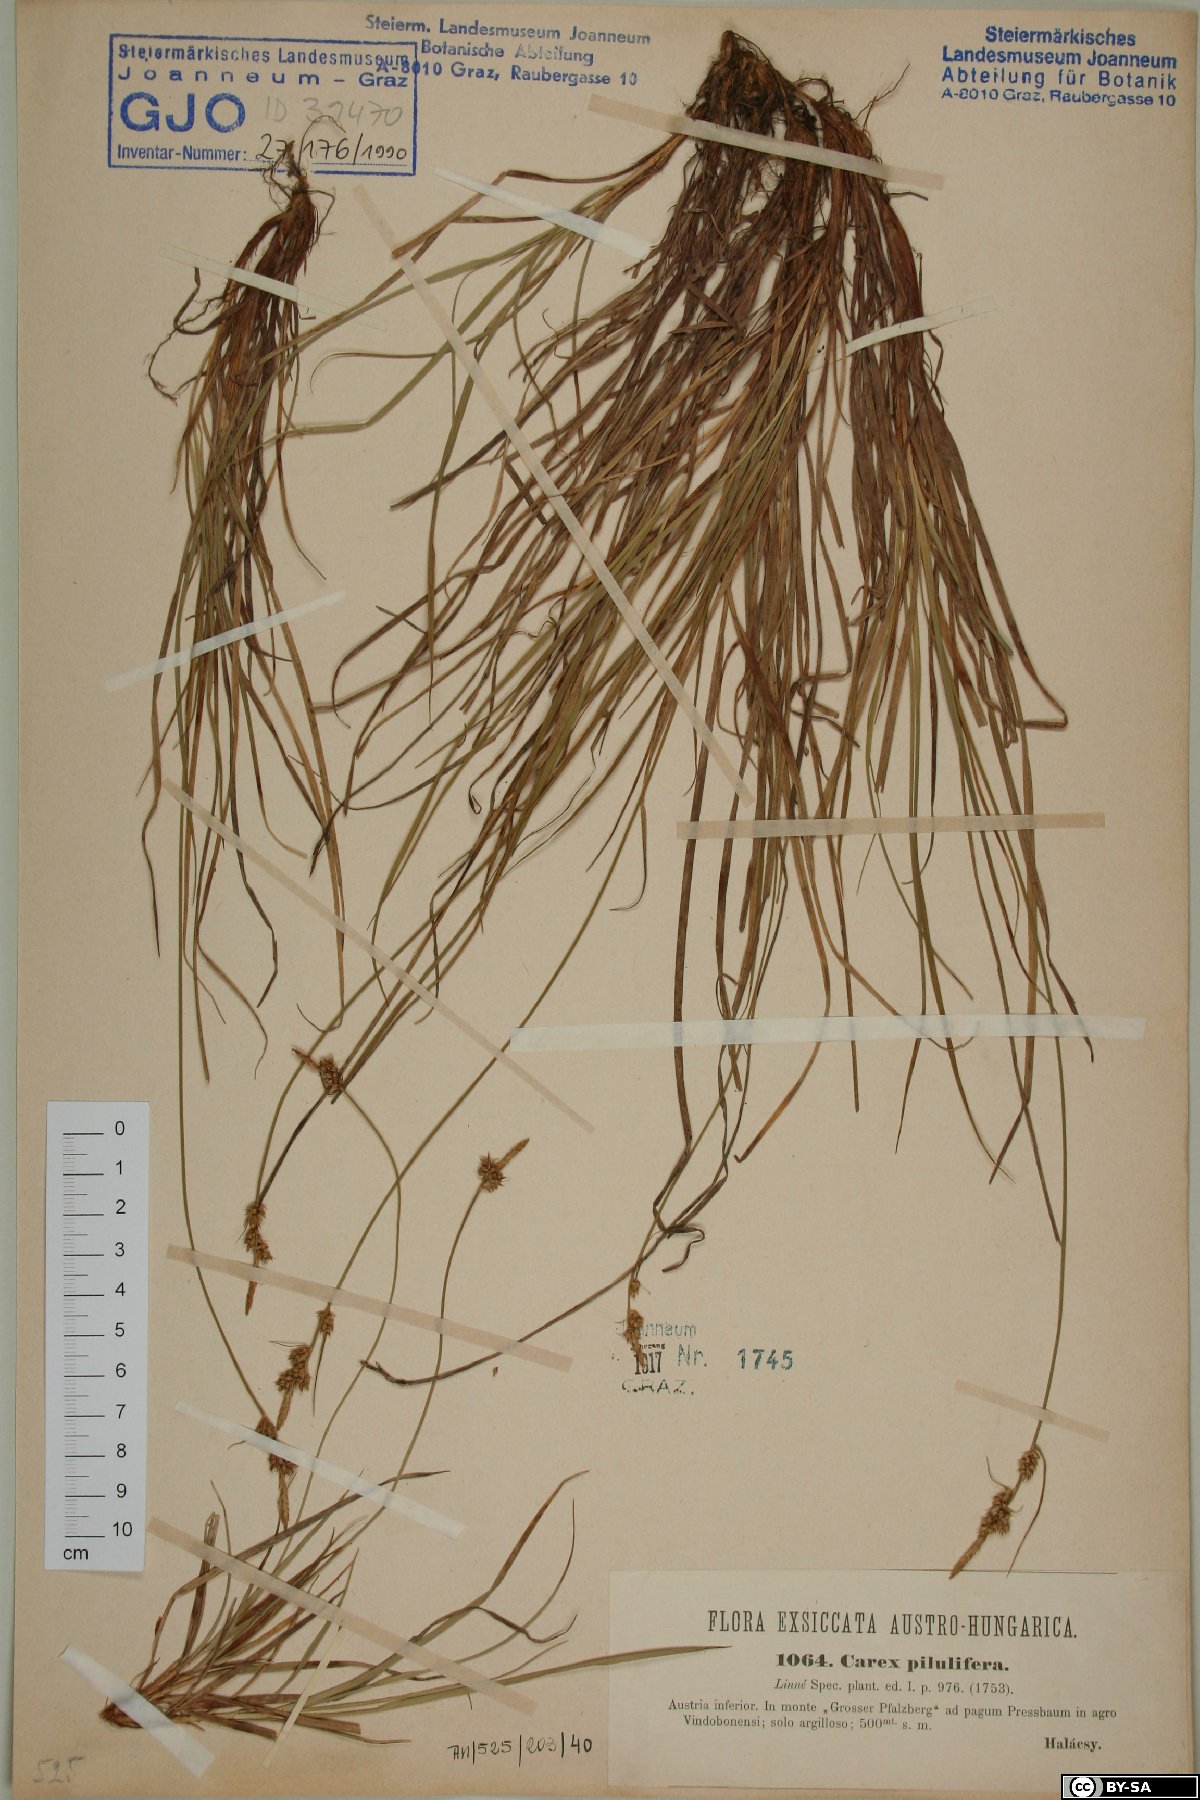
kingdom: Plantae
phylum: Tracheophyta
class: Liliopsida
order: Poales
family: Cyperaceae
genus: Carex
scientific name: Carex pilulifera
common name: Pill sedge
